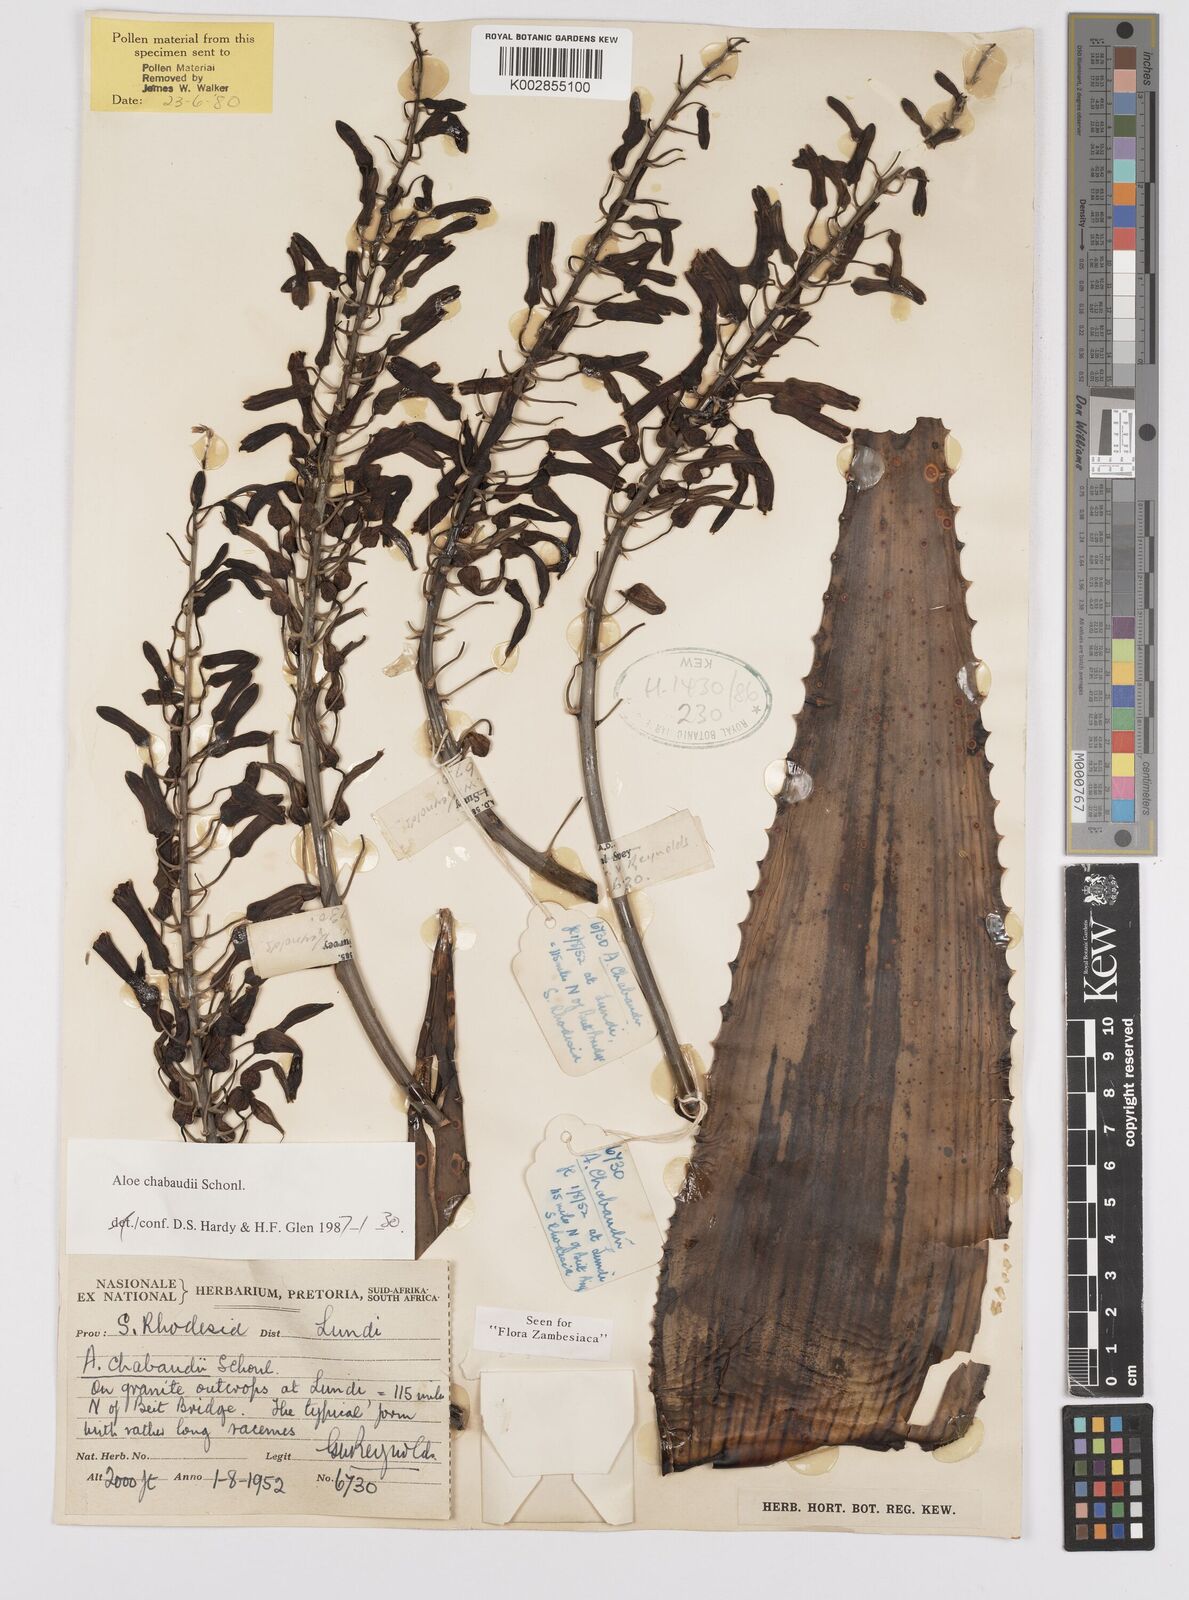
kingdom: Plantae
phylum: Tracheophyta
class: Liliopsida
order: Asparagales
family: Asphodelaceae
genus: Aloe
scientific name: Aloe chabaudii
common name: Chabaud's aloe
